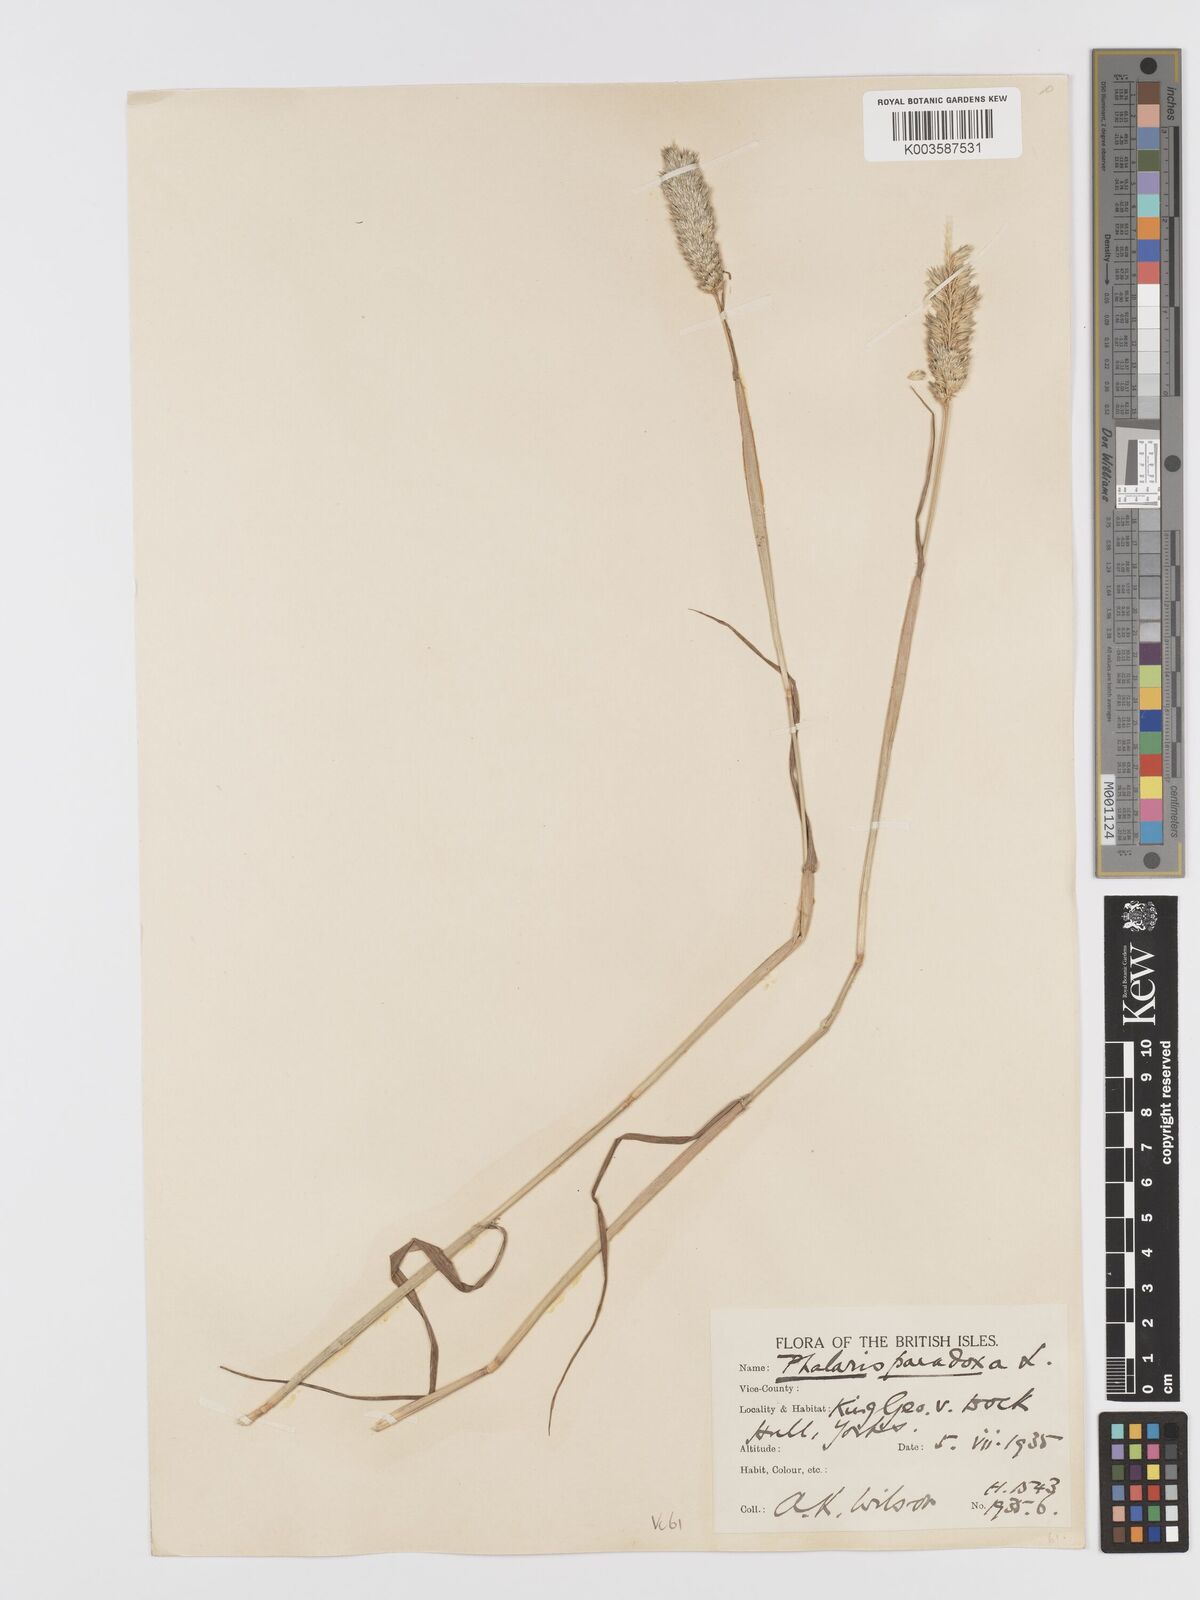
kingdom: Plantae
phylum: Tracheophyta
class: Liliopsida
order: Poales
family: Poaceae
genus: Phalaris
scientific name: Phalaris paradoxa
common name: Awned canary-grass
